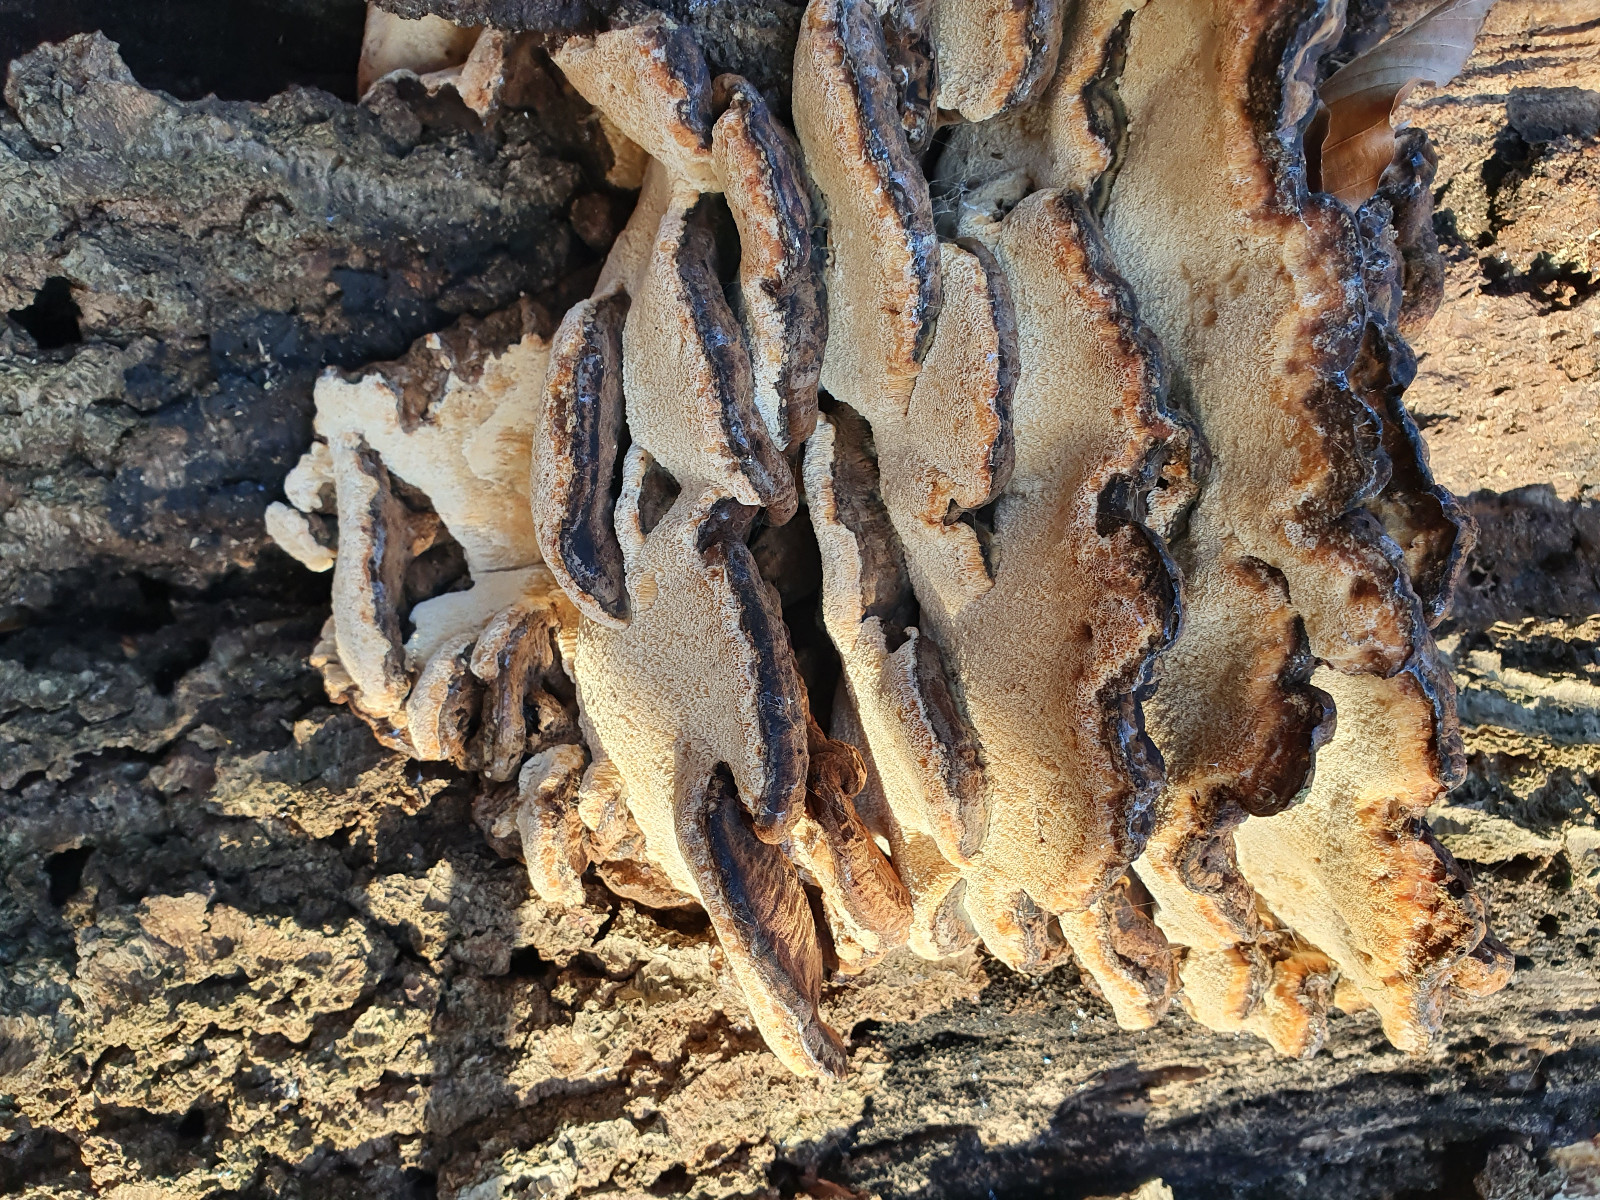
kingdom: Fungi
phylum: Basidiomycota
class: Agaricomycetes
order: Polyporales
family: Ischnodermataceae
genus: Ischnoderma
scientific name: Ischnoderma resinosum
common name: løv-tjæreporesvamp
